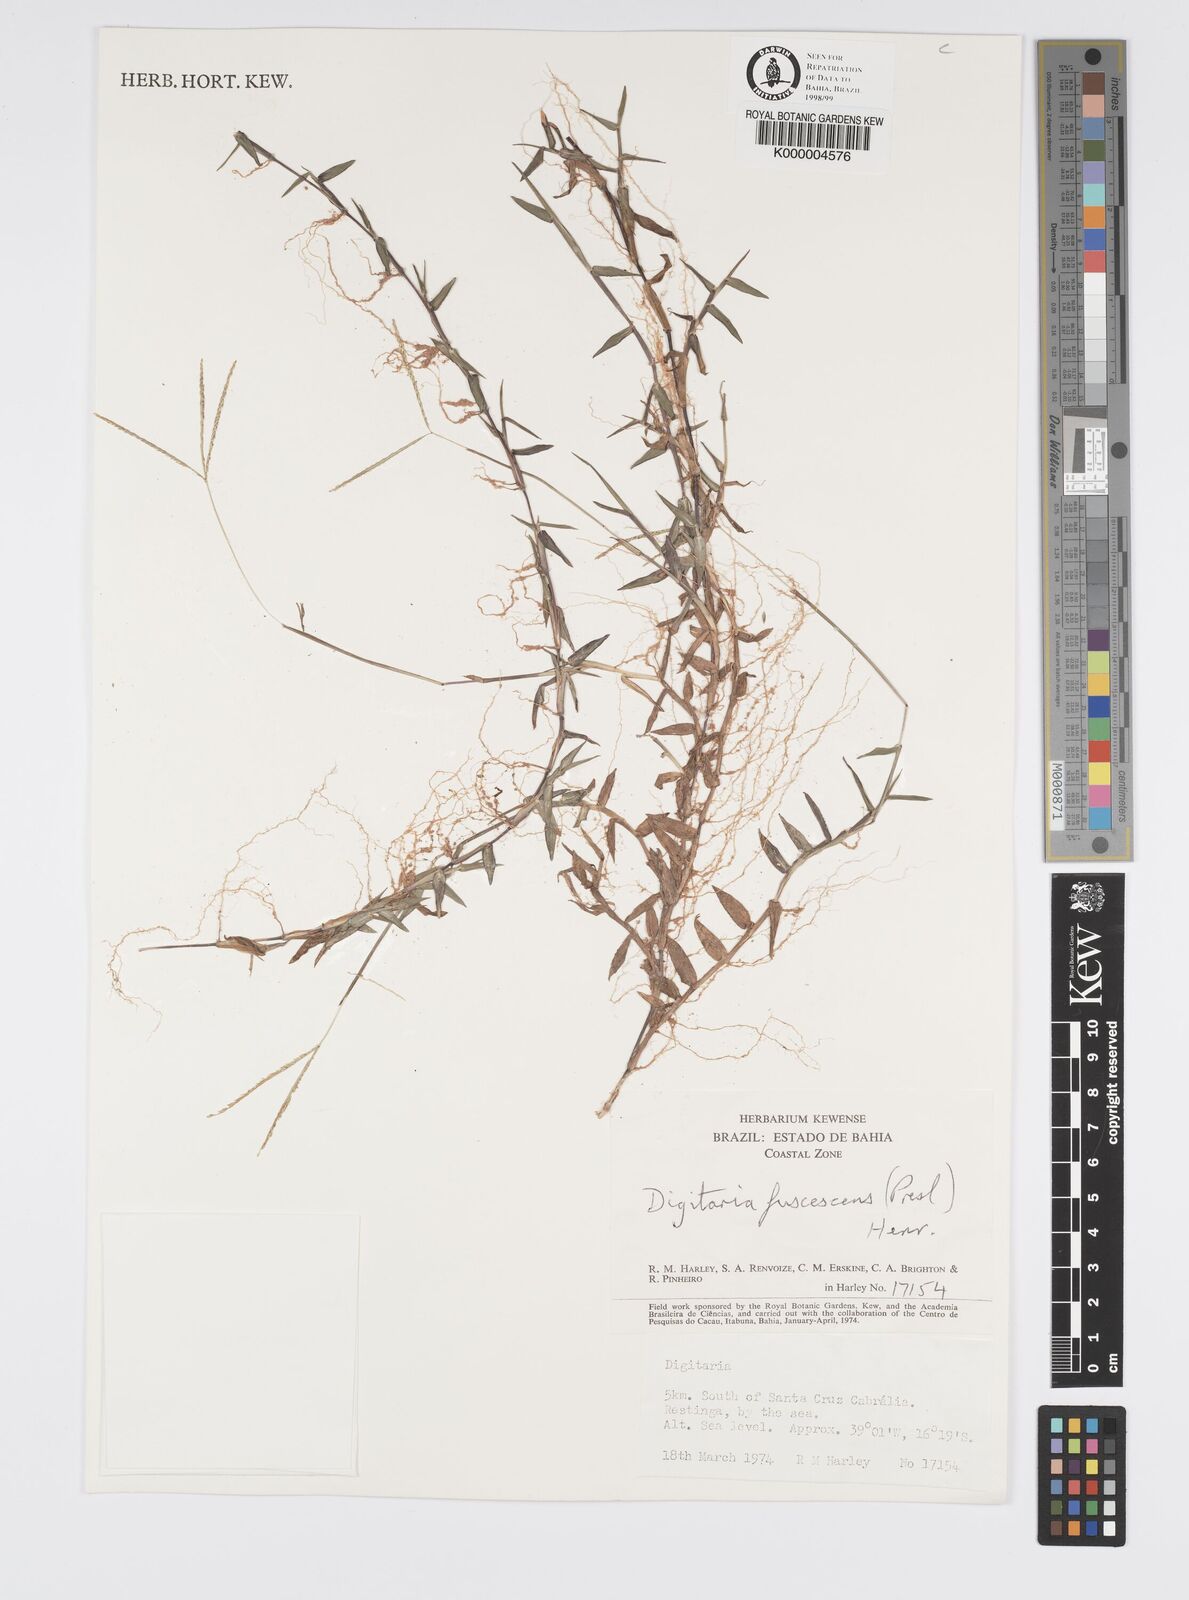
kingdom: Plantae
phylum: Tracheophyta
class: Liliopsida
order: Poales
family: Poaceae
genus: Digitaria
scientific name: Digitaria fuscescens
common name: Yellow crabgrass
